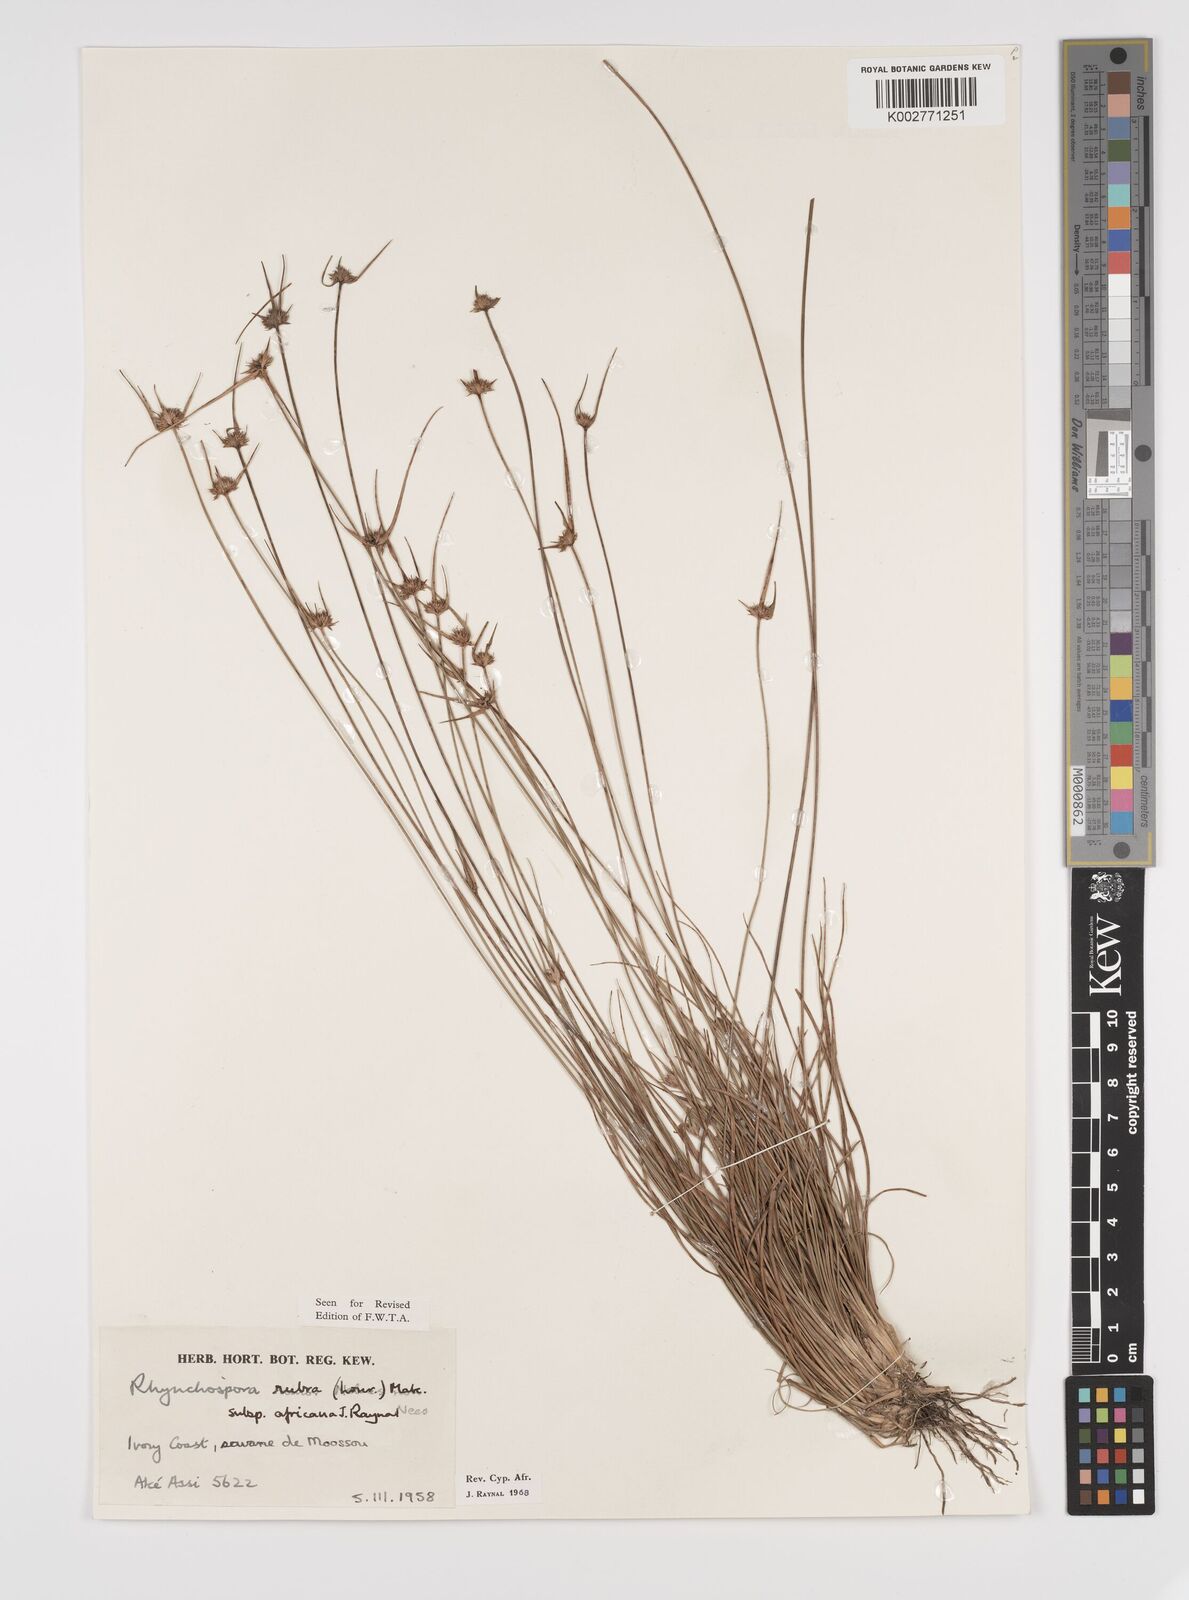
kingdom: Plantae
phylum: Tracheophyta
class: Liliopsida
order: Poales
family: Cyperaceae
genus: Rhynchospora
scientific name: Rhynchospora rubra
